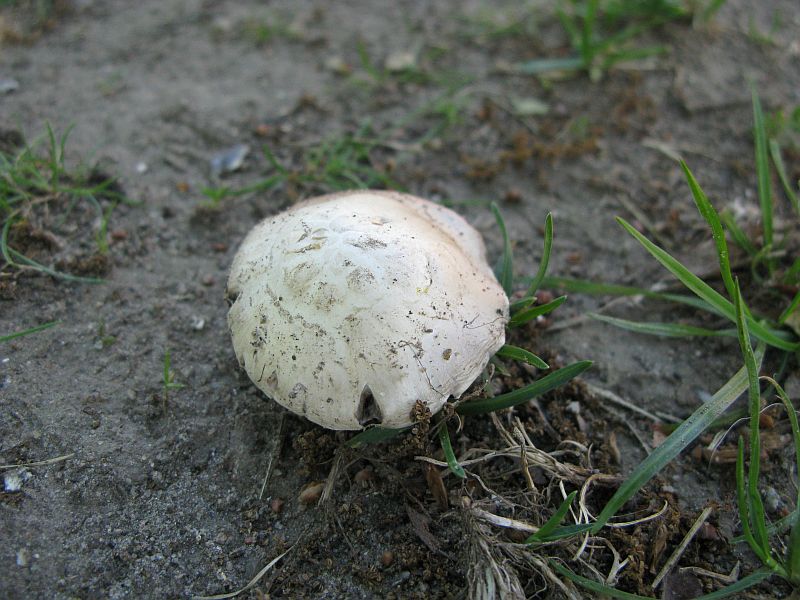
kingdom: Fungi
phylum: Basidiomycota
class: Agaricomycetes
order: Agaricales
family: Agaricaceae
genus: Agaricus
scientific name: Agaricus campestris
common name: mark-champignon
